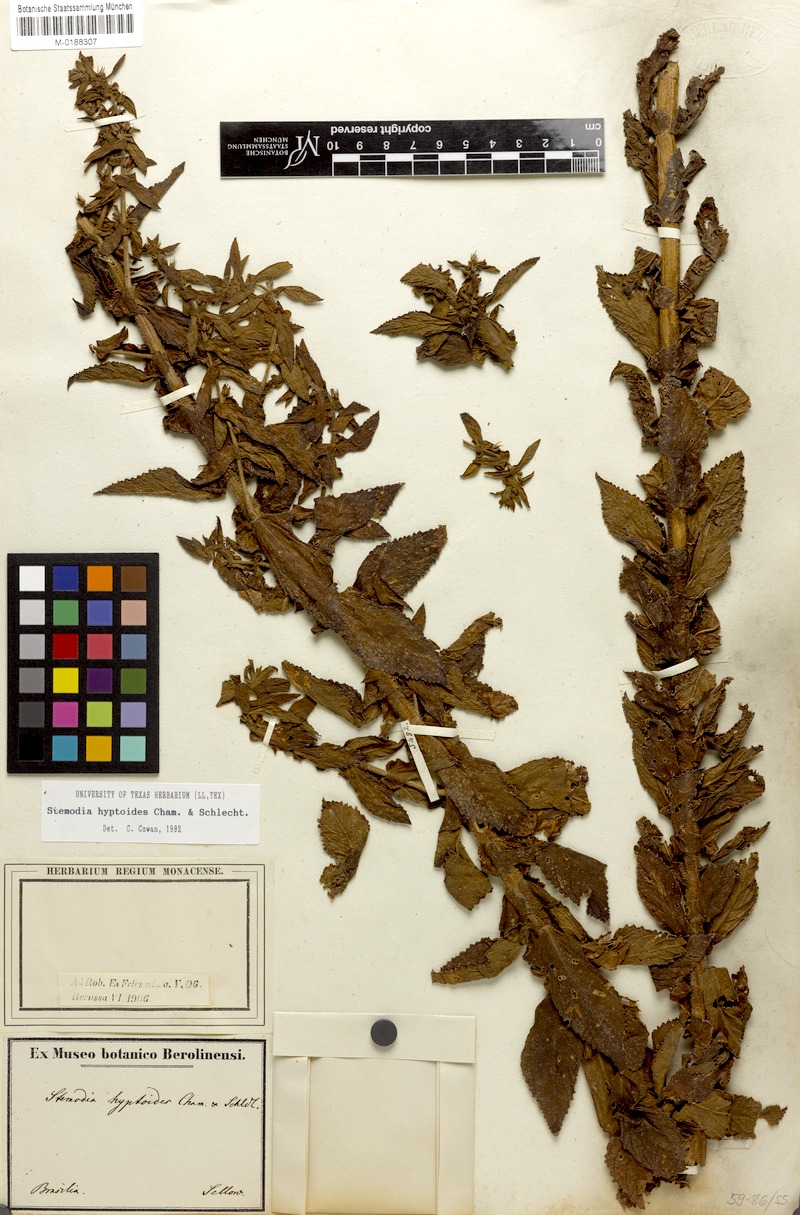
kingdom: Plantae
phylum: Tracheophyta
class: Magnoliopsida
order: Lamiales
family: Plantaginaceae
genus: Stemodia
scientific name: Stemodia hyptoides
